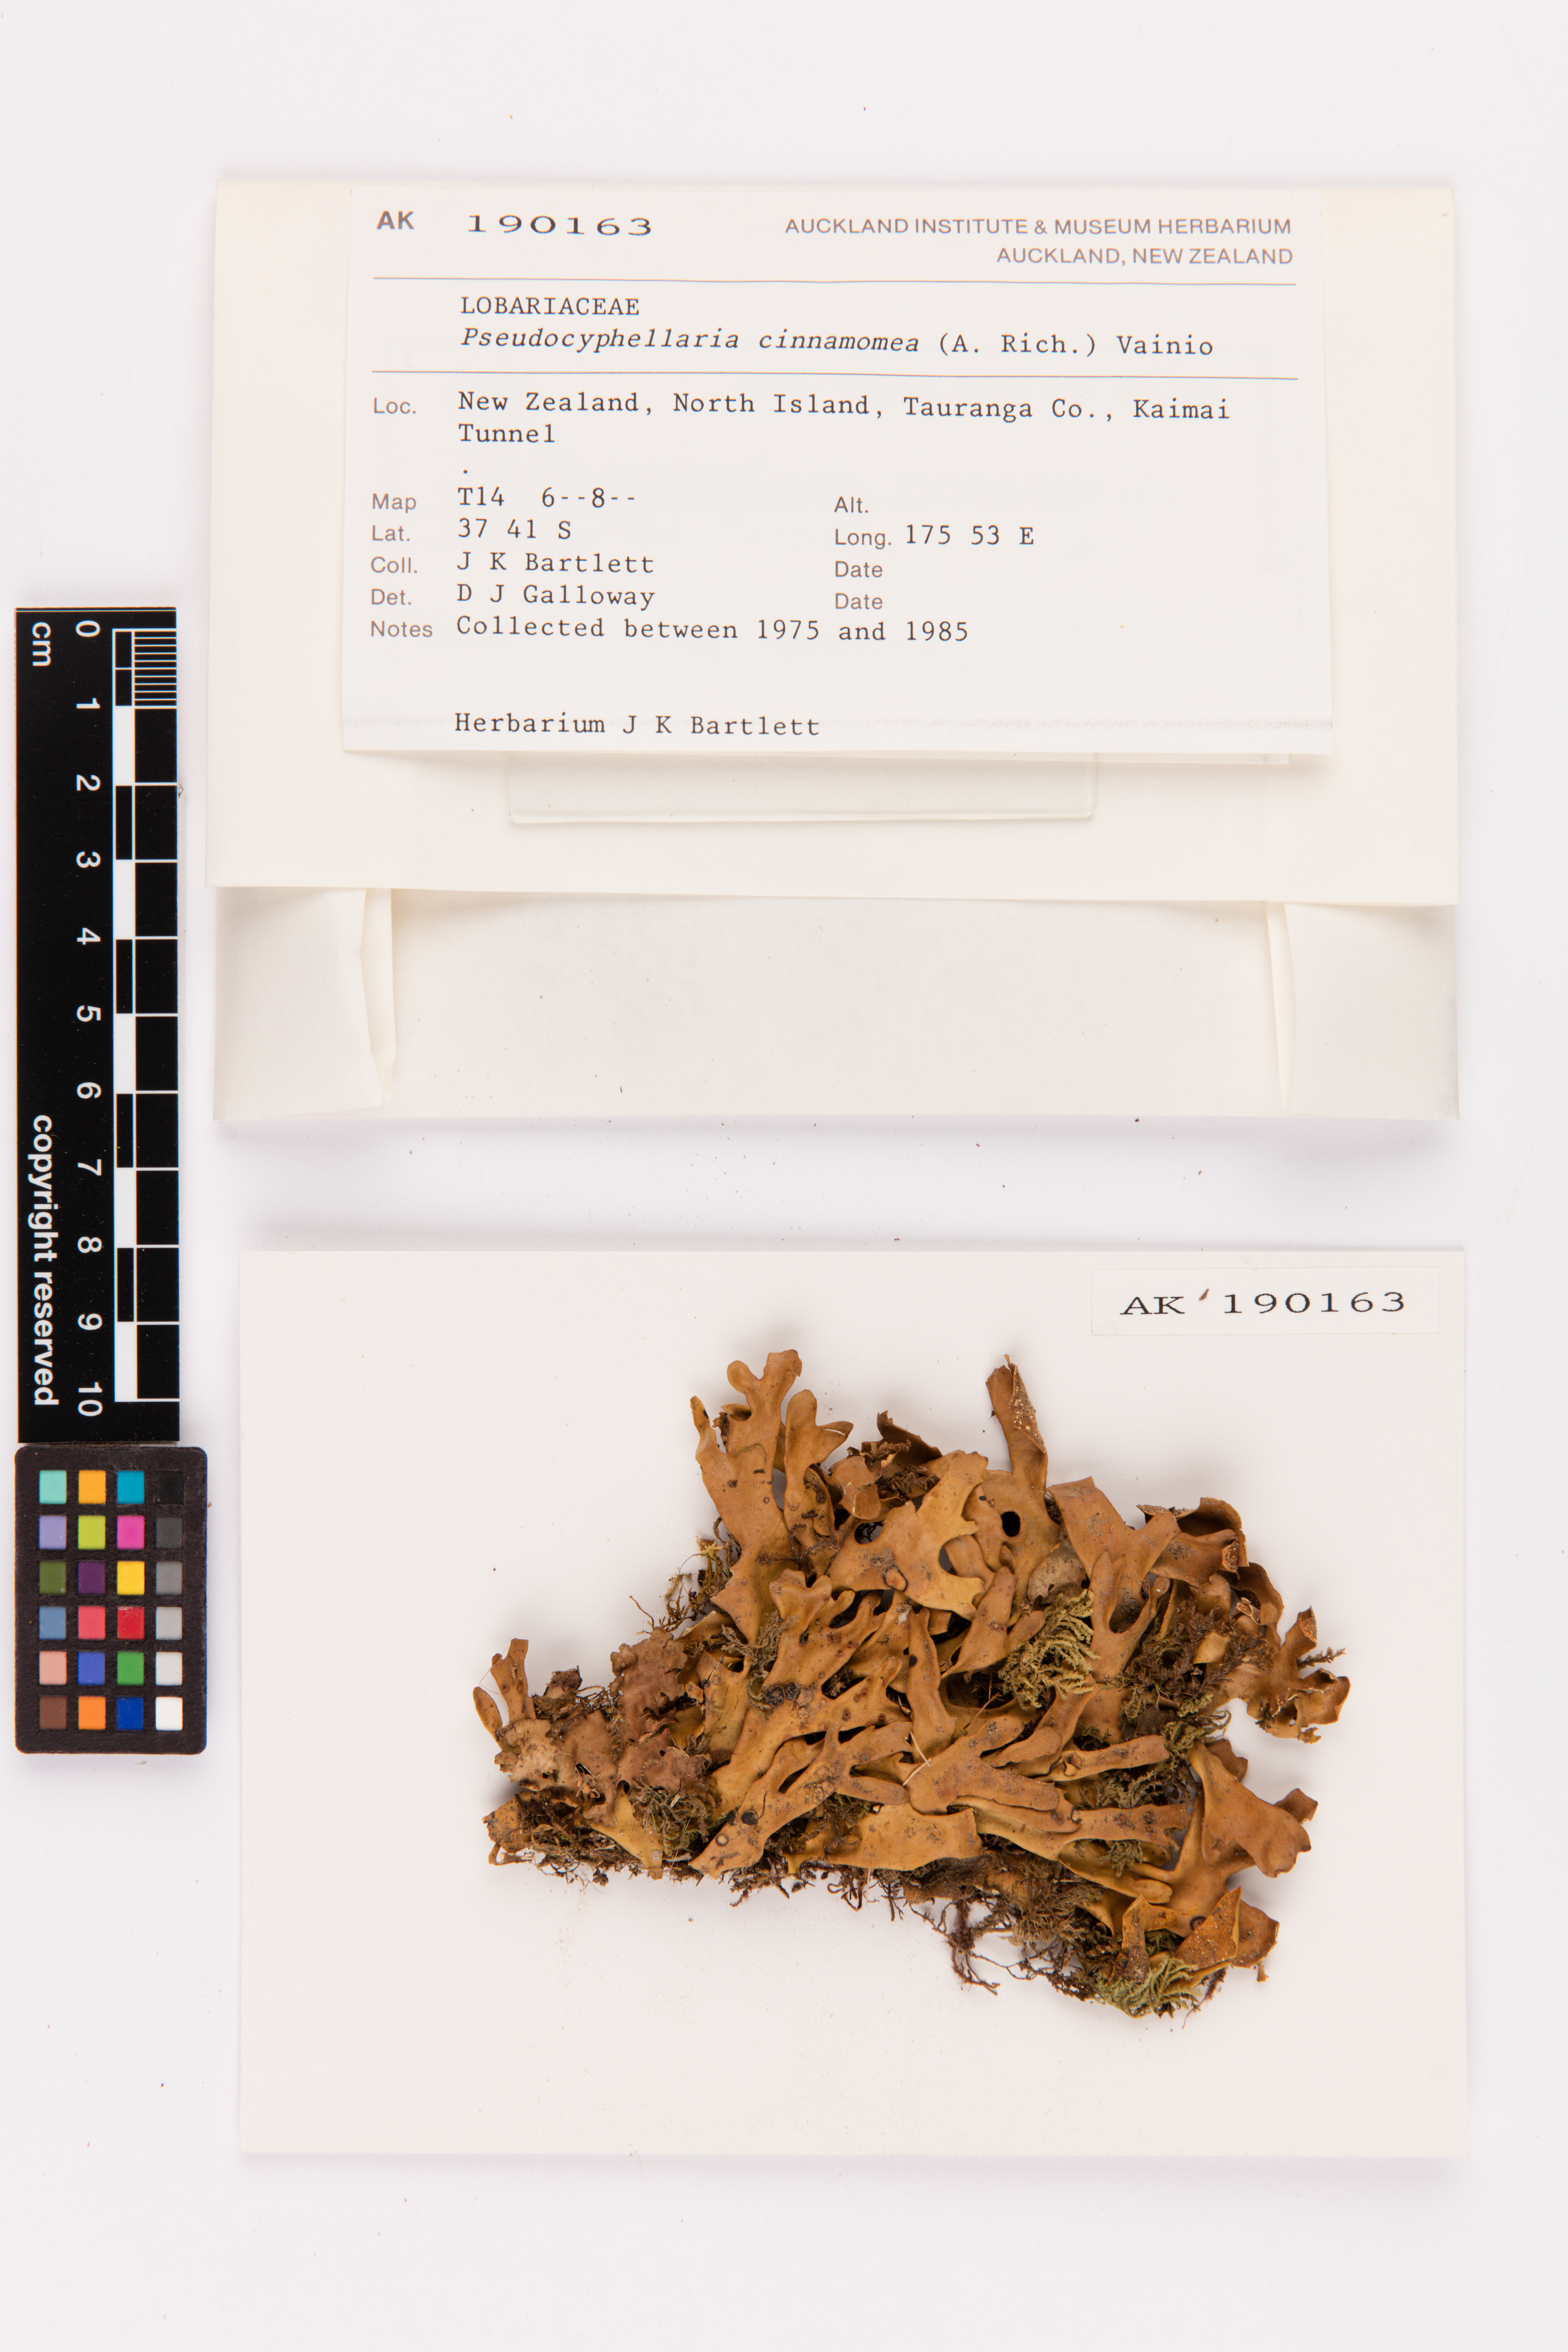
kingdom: Fungi
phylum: Ascomycota
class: Lecanoromycetes
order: Peltigerales
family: Lobariaceae
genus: Pseudocyphellaria
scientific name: Pseudocyphellaria cinnamomea
